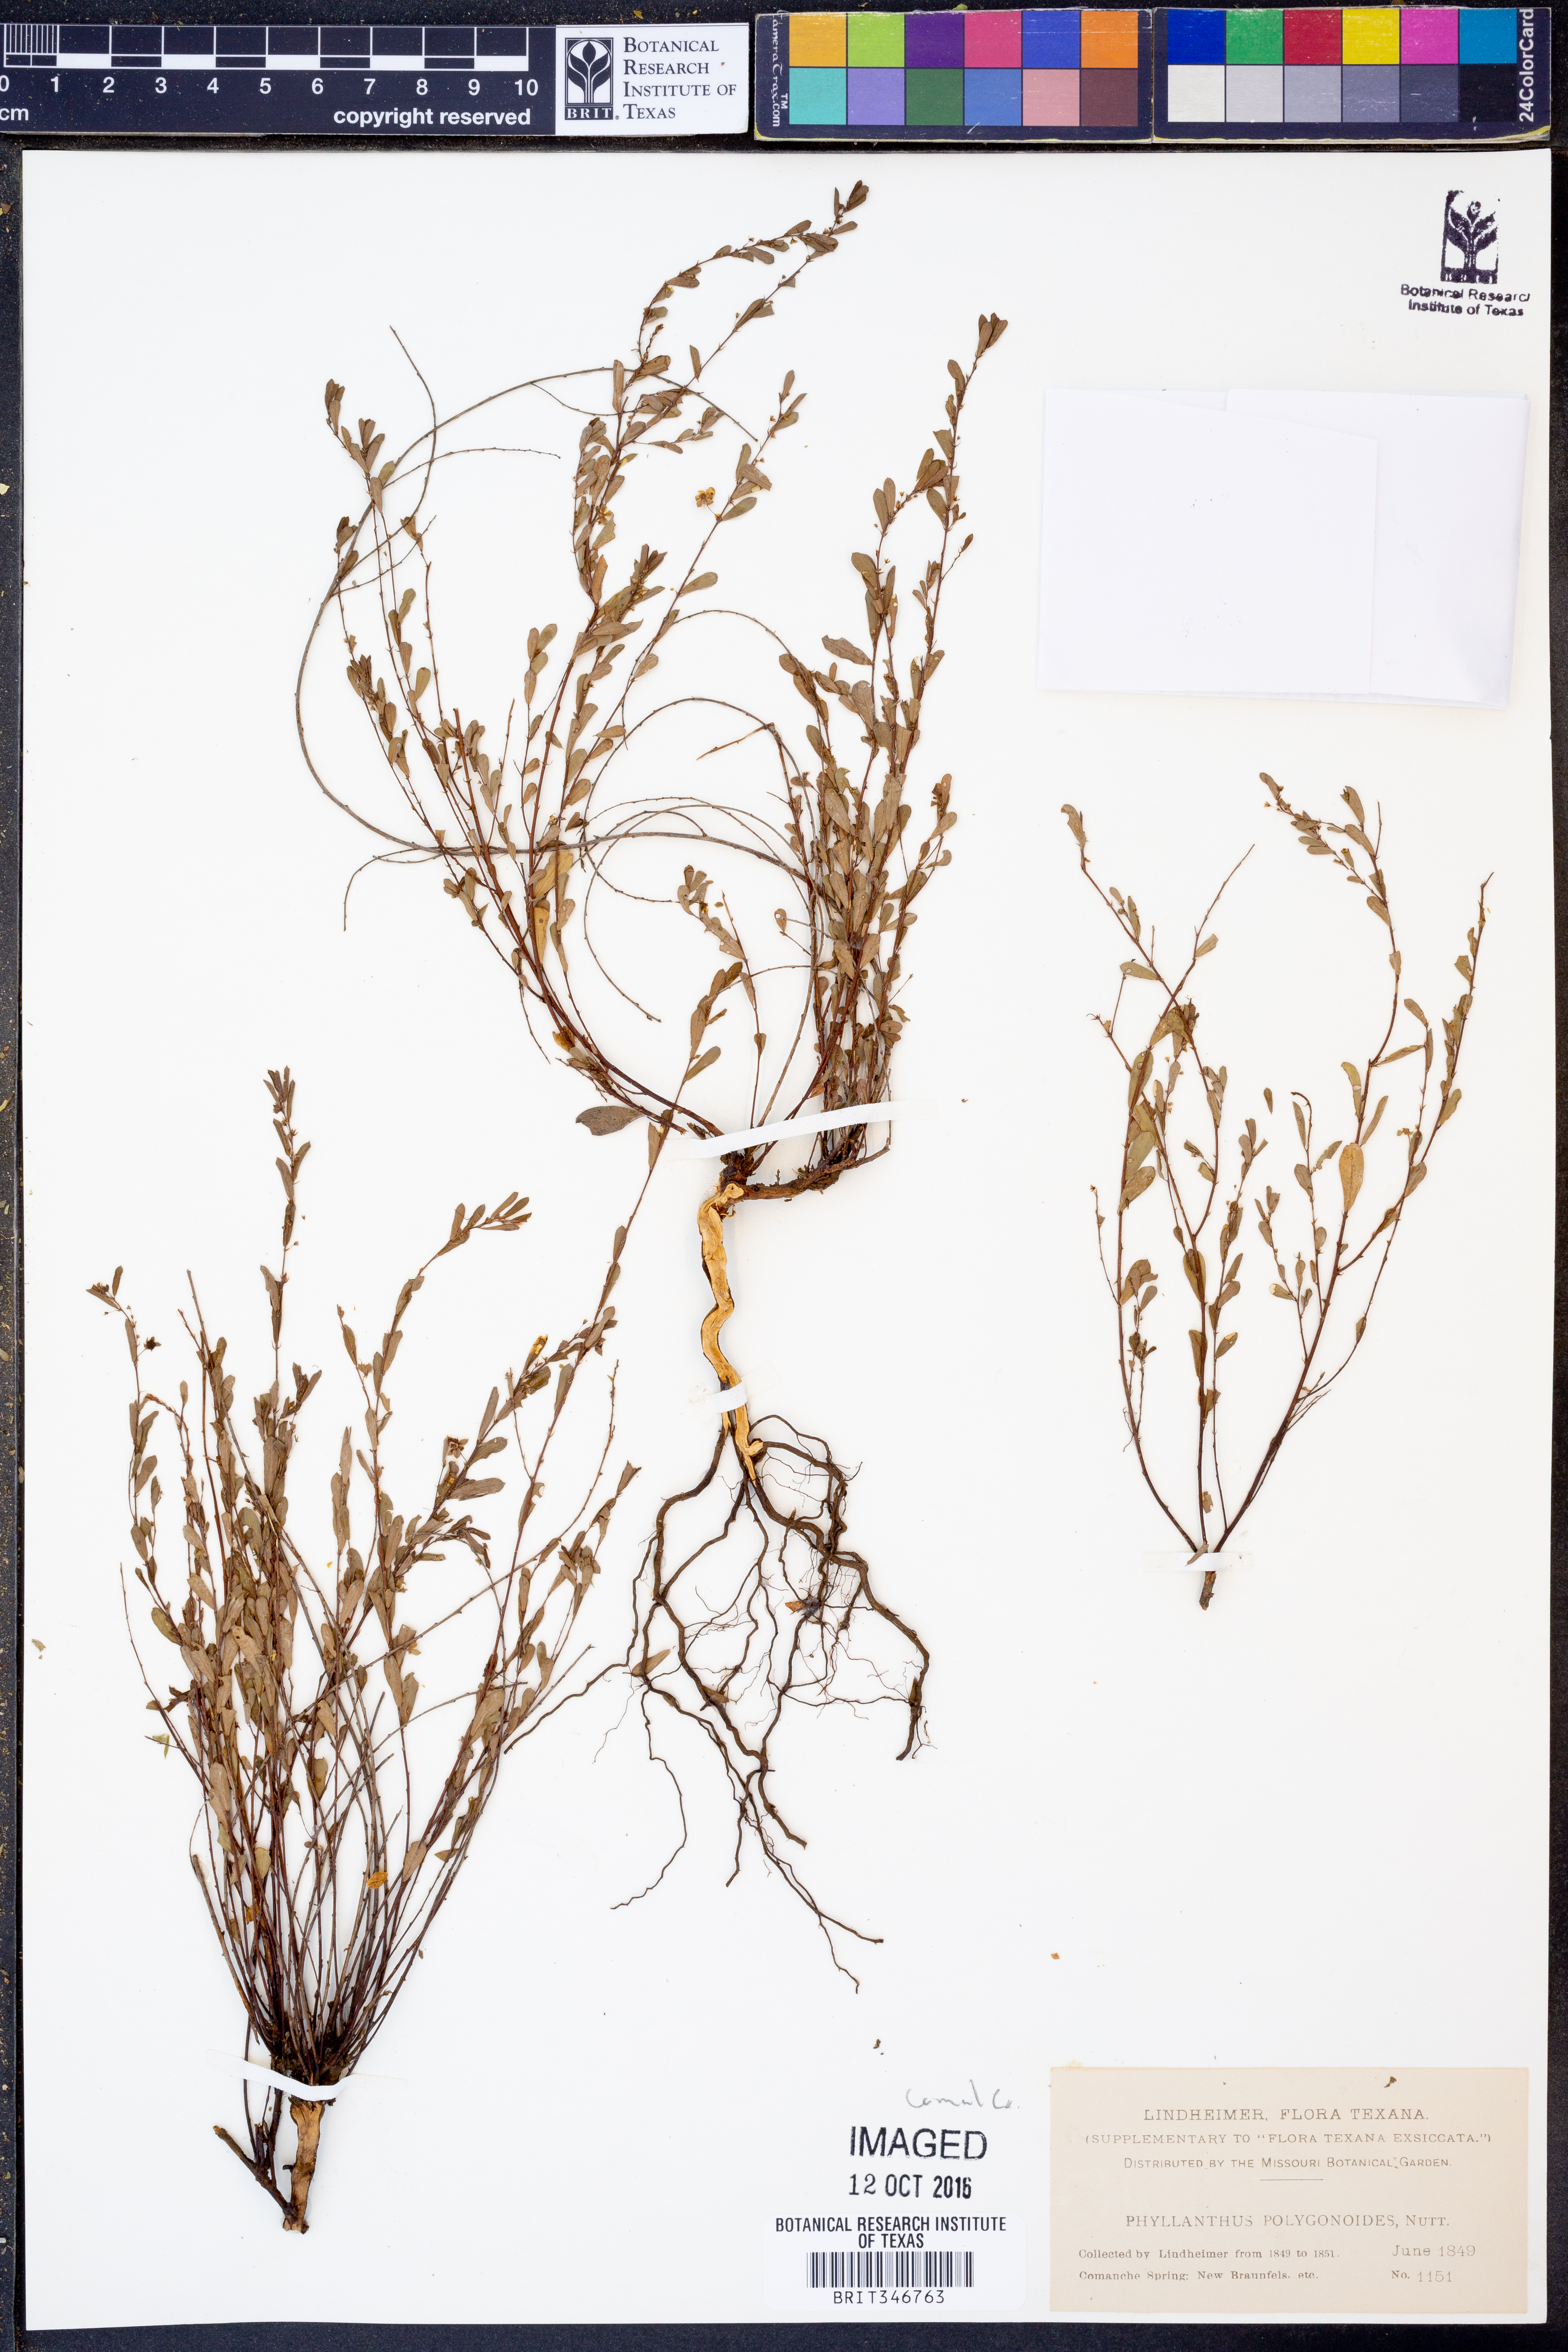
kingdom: Plantae
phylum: Tracheophyta
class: Magnoliopsida
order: Malpighiales
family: Phyllanthaceae
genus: Phyllanthus
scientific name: Phyllanthus polygonoides
